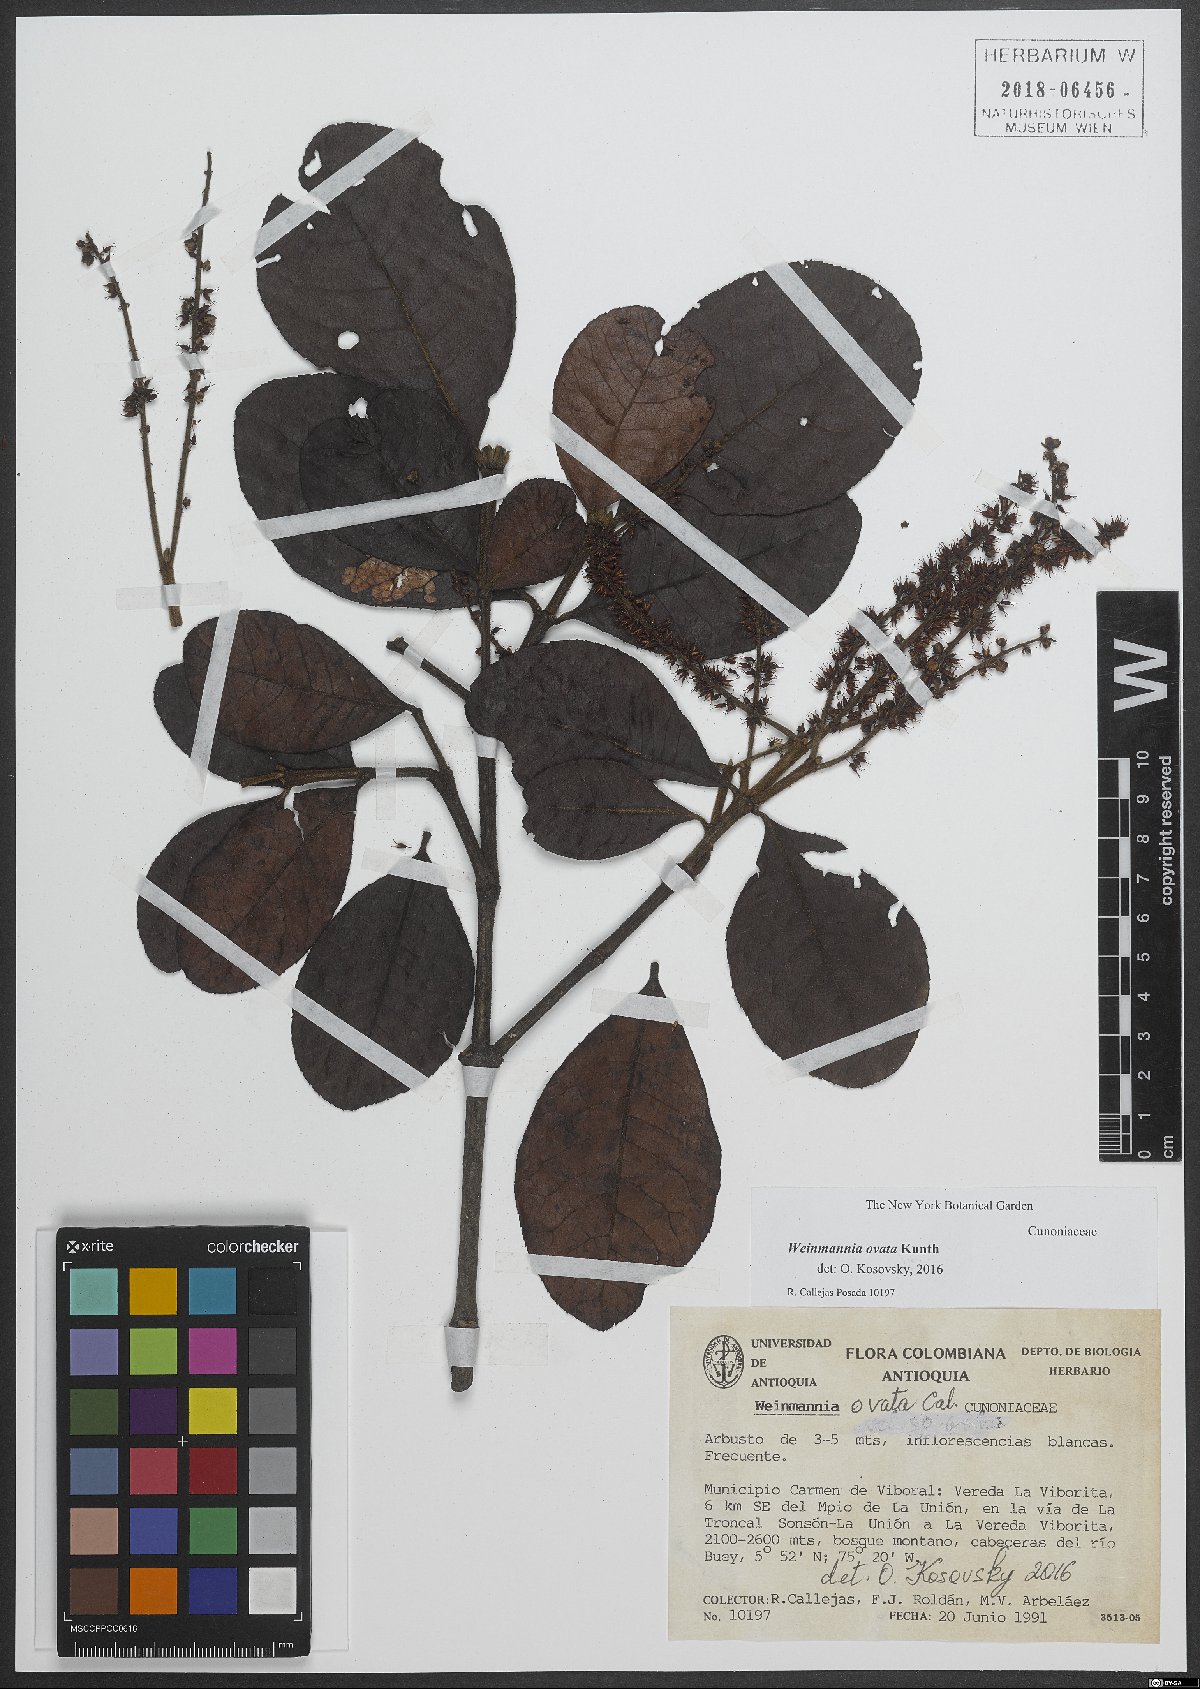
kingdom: Plantae
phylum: Tracheophyta
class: Magnoliopsida
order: Oxalidales
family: Cunoniaceae
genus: Weinmannia
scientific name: Weinmannia auriculata
